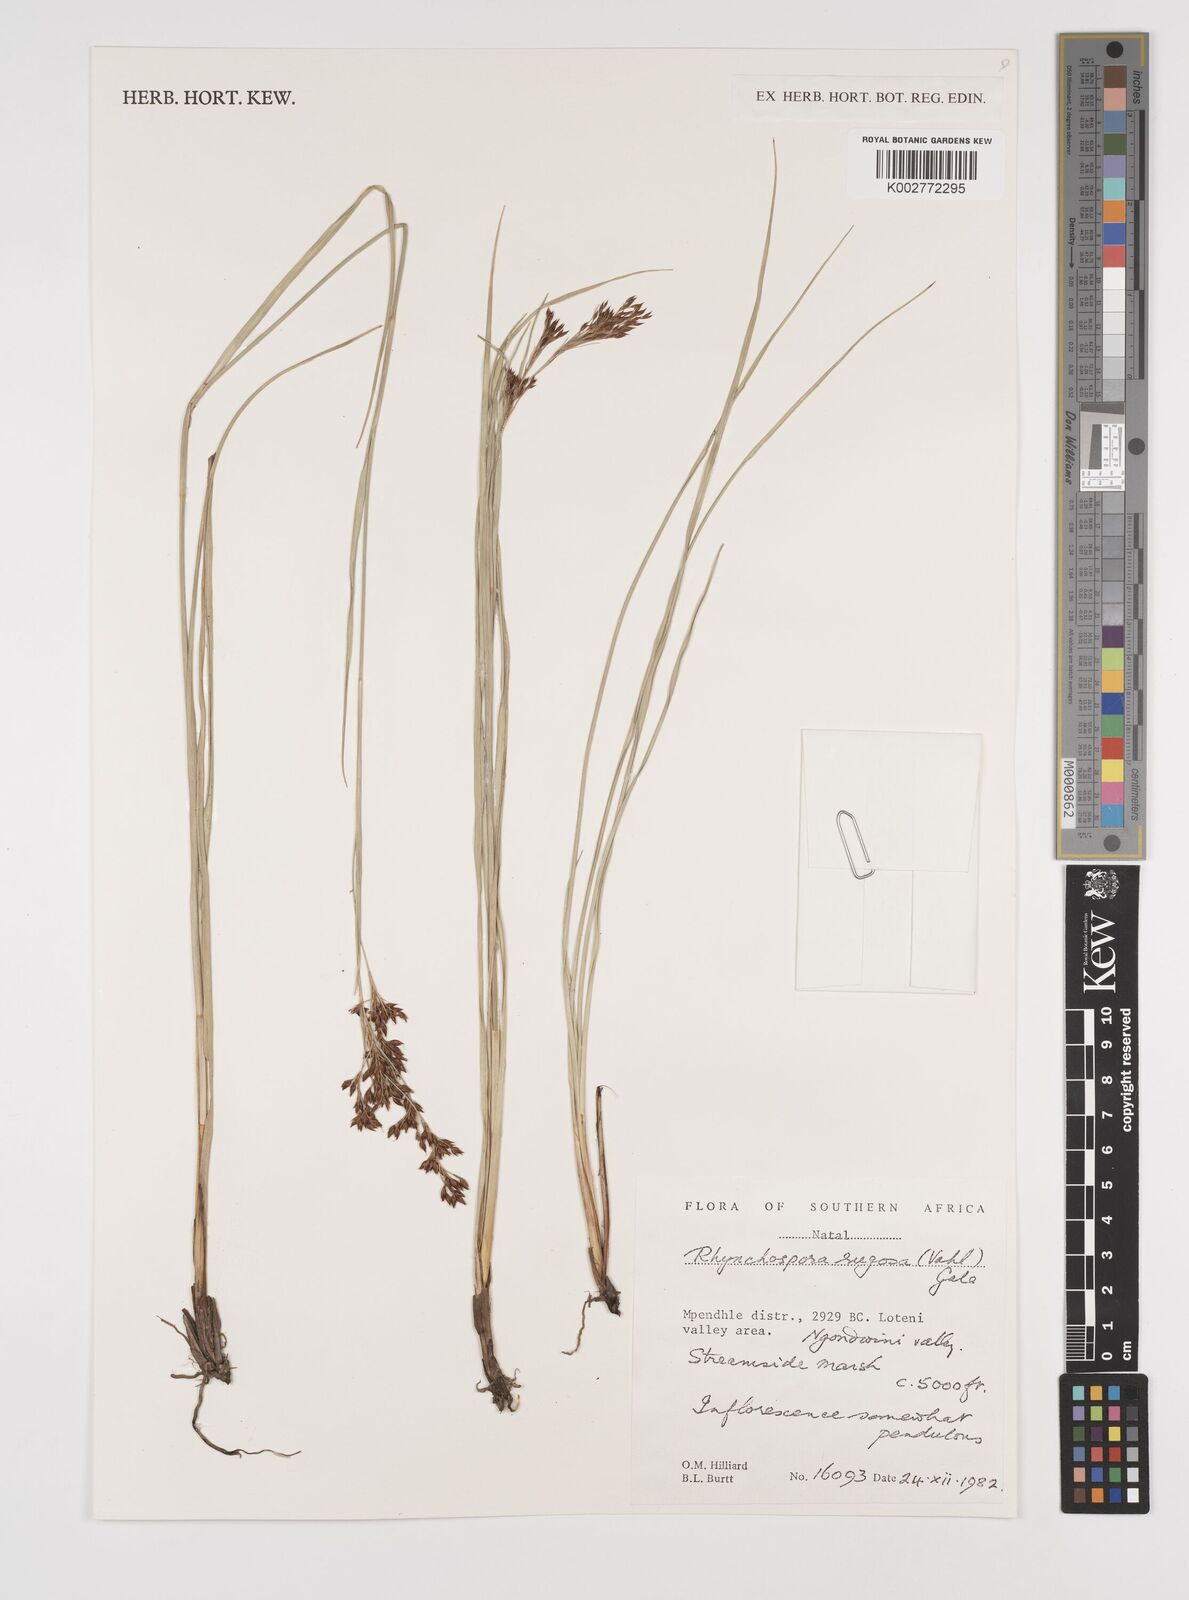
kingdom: Plantae
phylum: Tracheophyta
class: Liliopsida
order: Poales
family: Cyperaceae
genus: Rhynchospora
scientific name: Rhynchospora rugosa
